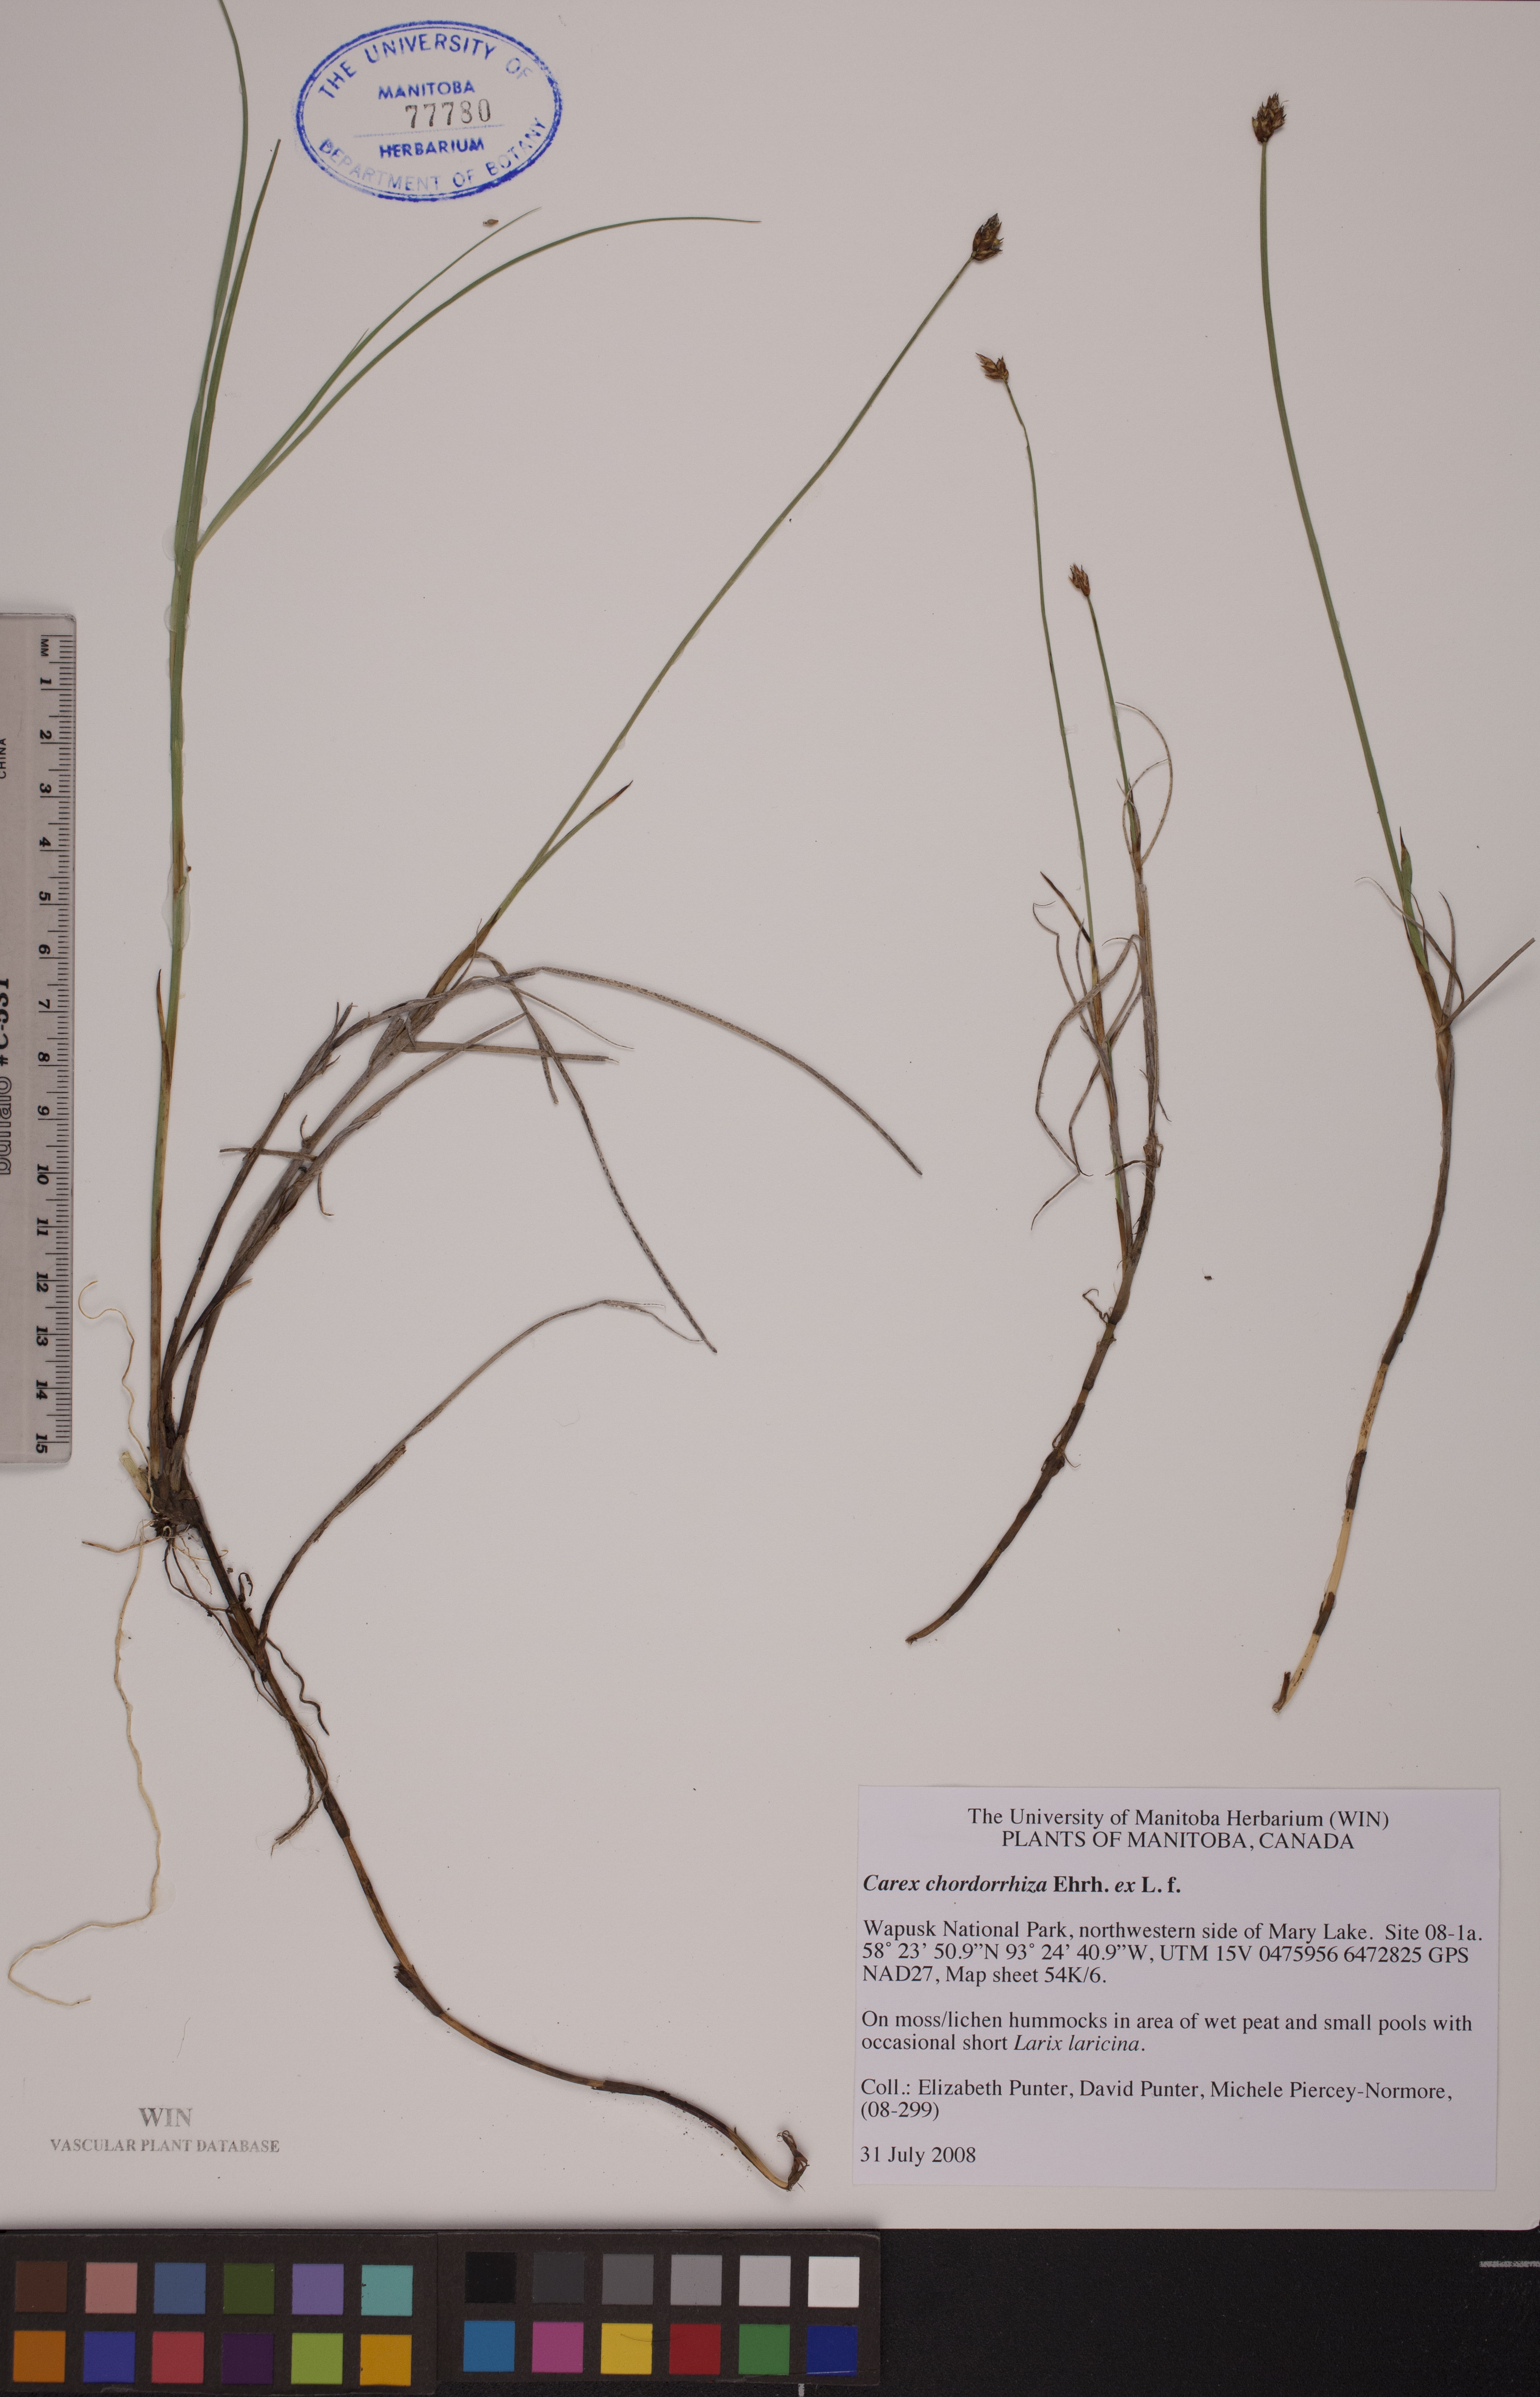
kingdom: Plantae
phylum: Tracheophyta
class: Liliopsida
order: Poales
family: Cyperaceae
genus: Carex
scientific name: Carex chordorrhiza
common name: String sedge
